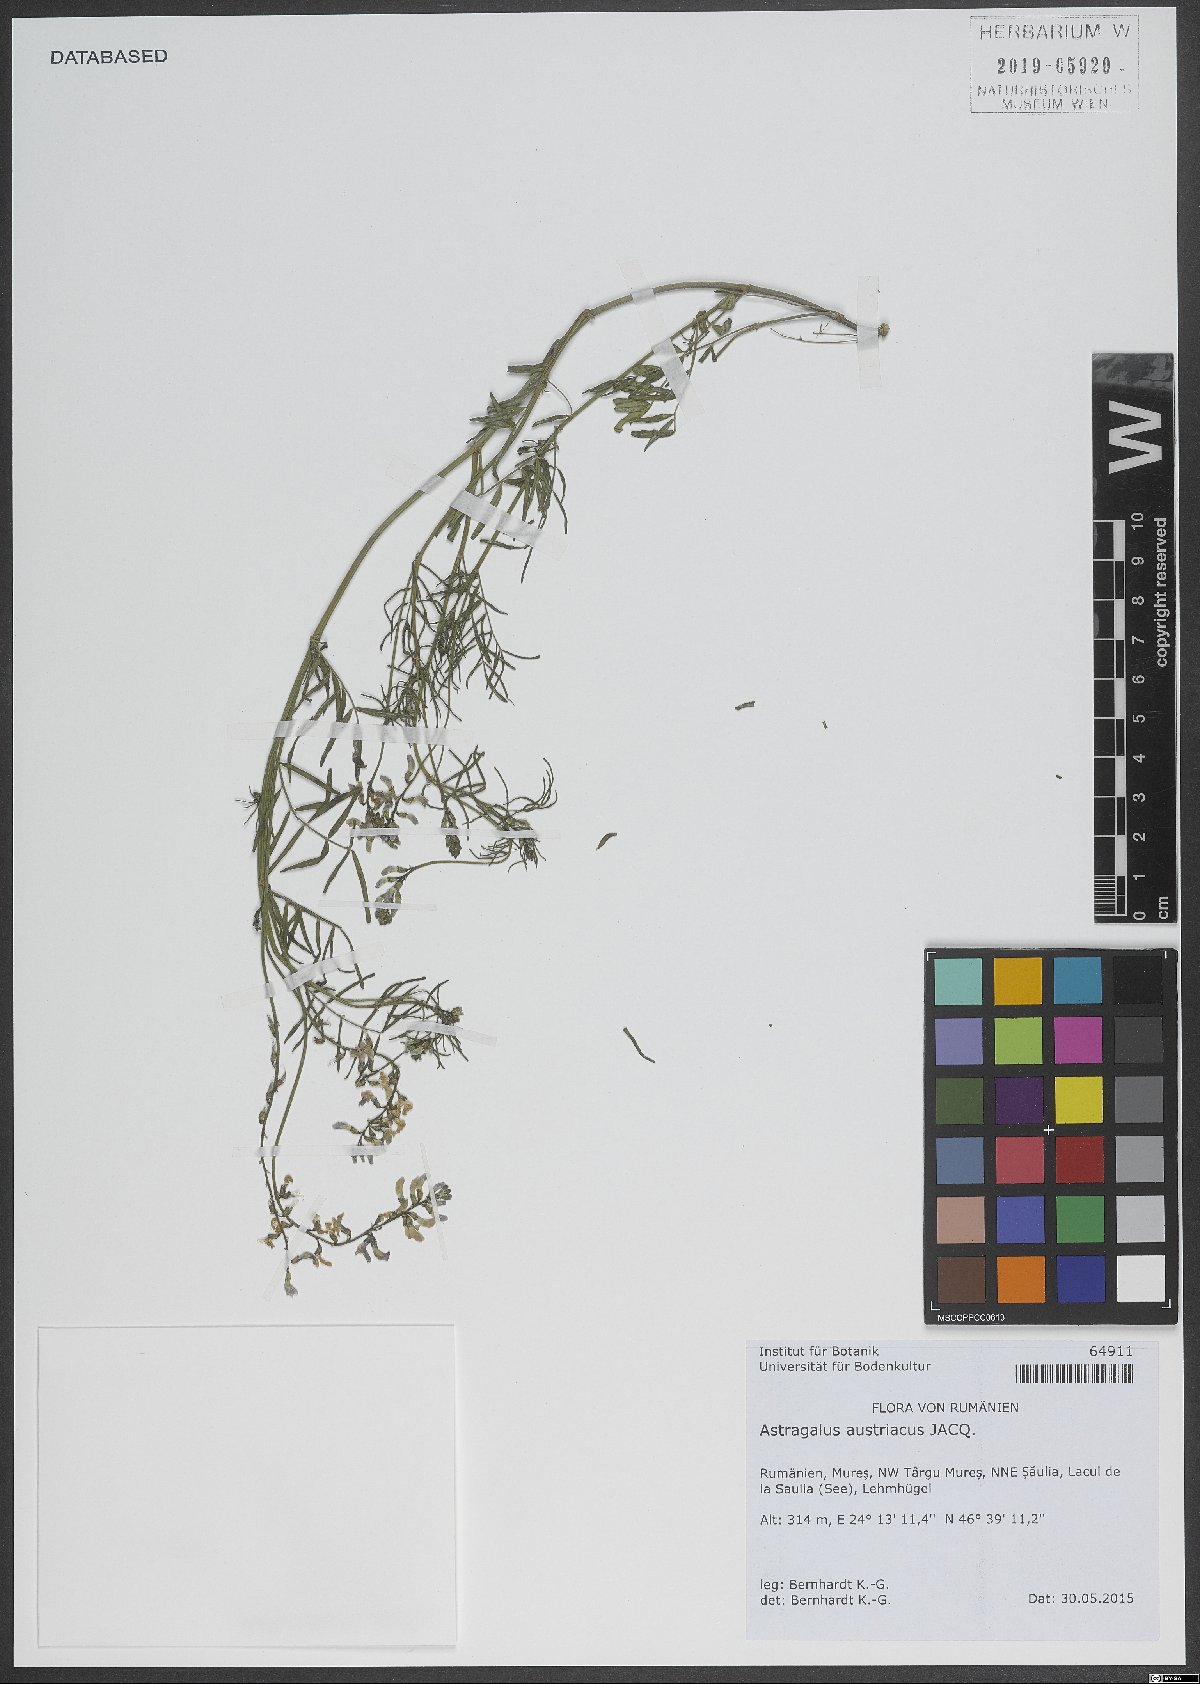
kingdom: Plantae
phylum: Tracheophyta
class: Magnoliopsida
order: Fabales
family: Fabaceae
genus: Astragalus
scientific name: Astragalus austriacus
